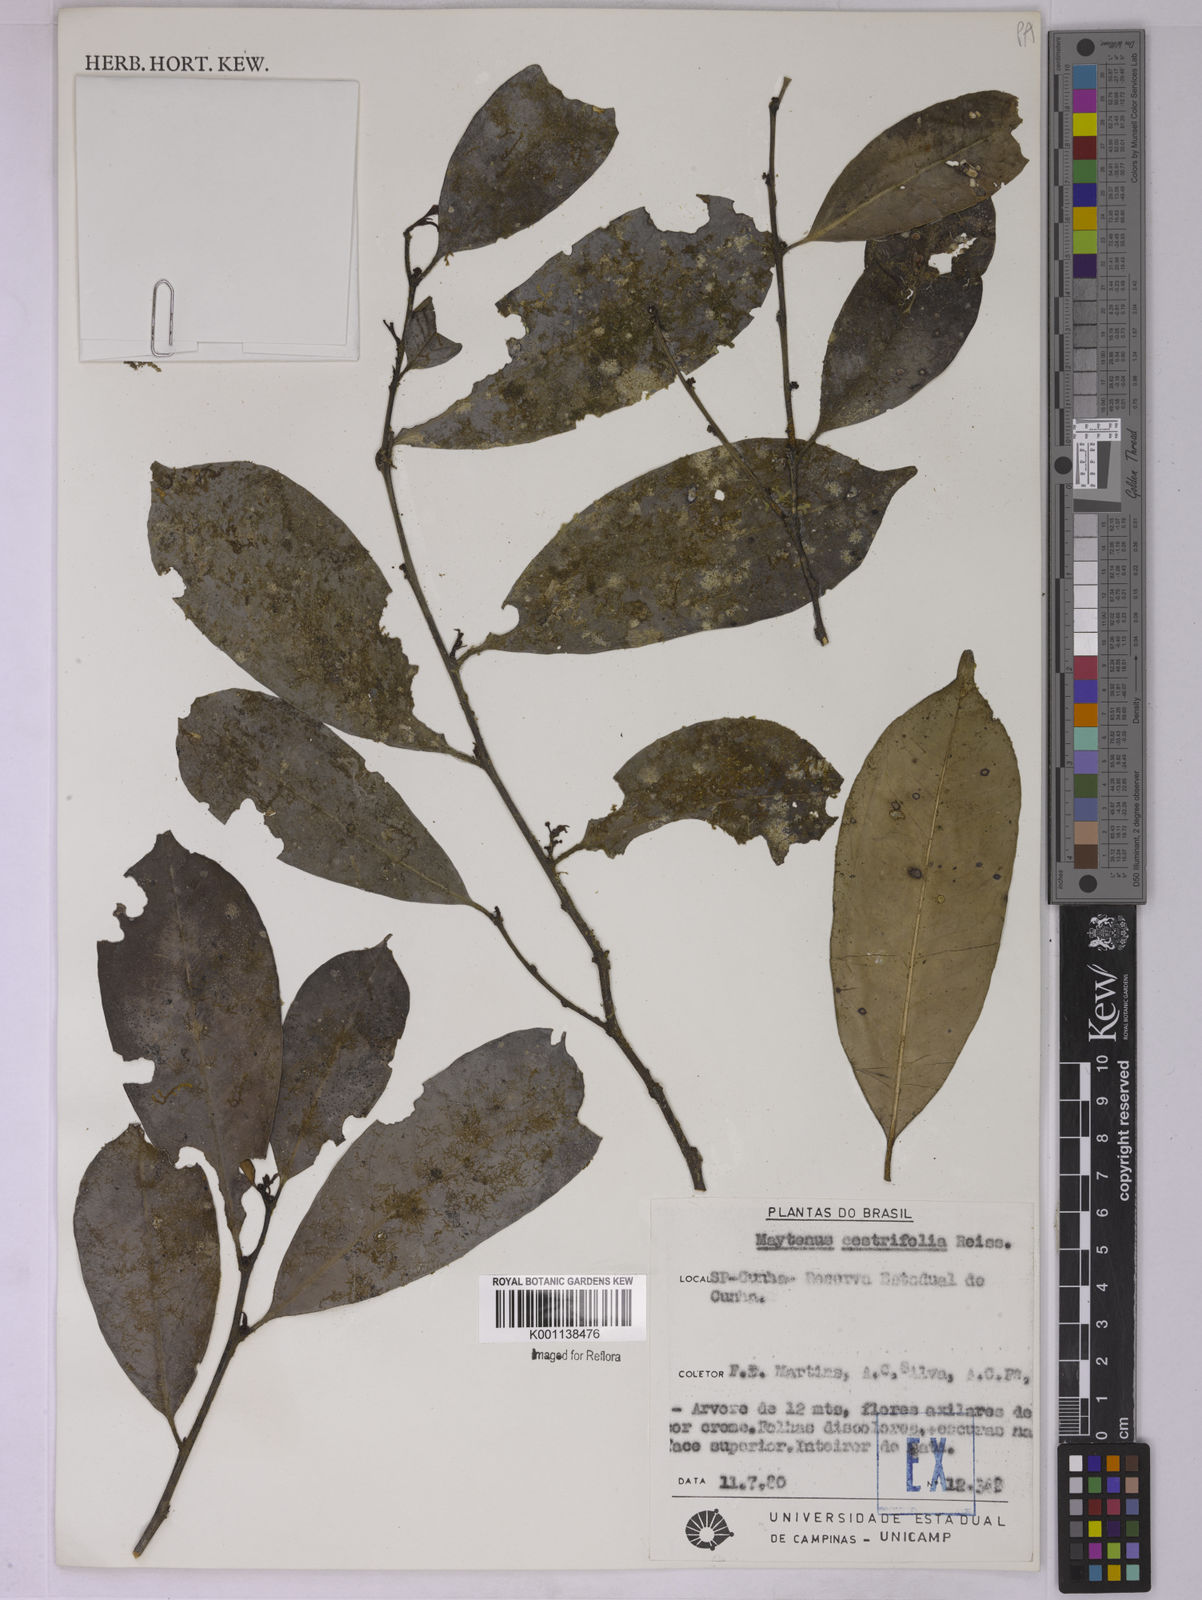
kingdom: Plantae
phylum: Tracheophyta
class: Magnoliopsida
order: Celastrales
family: Celastraceae
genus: Monteverdia
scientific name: Monteverdia cestrifolia
